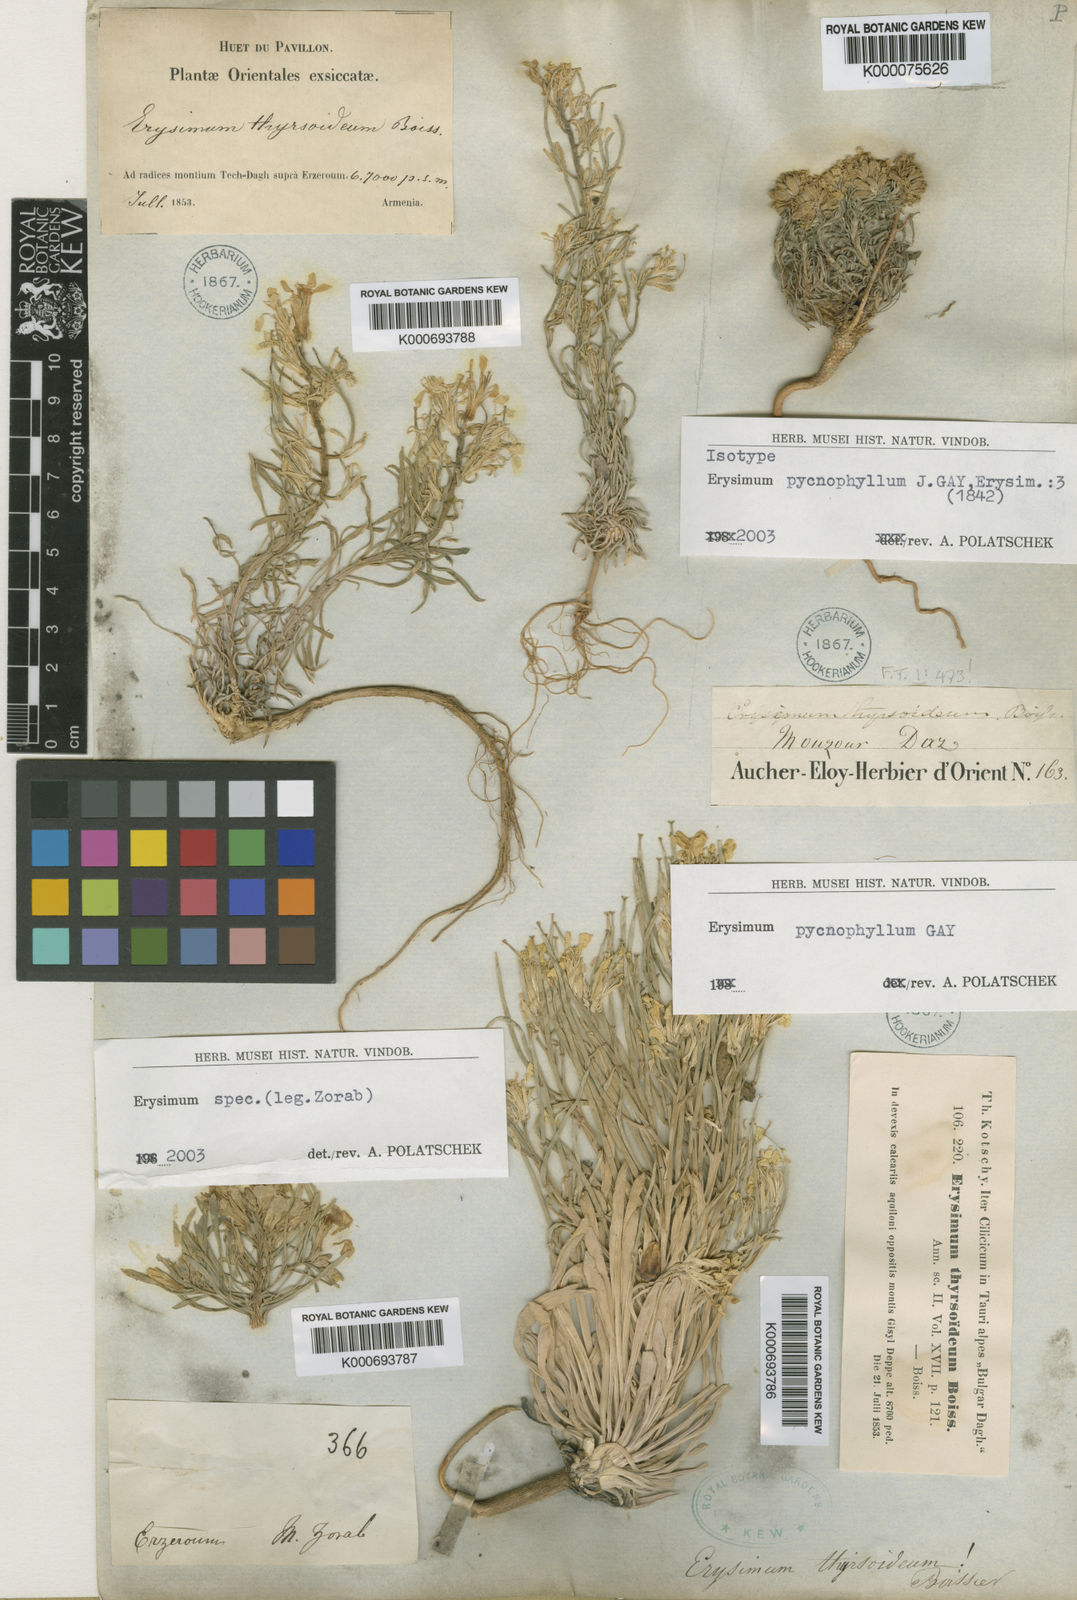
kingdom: Plantae
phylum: Tracheophyta
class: Magnoliopsida
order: Brassicales
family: Brassicaceae
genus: Erysimum
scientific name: Erysimum pycnophyllum
